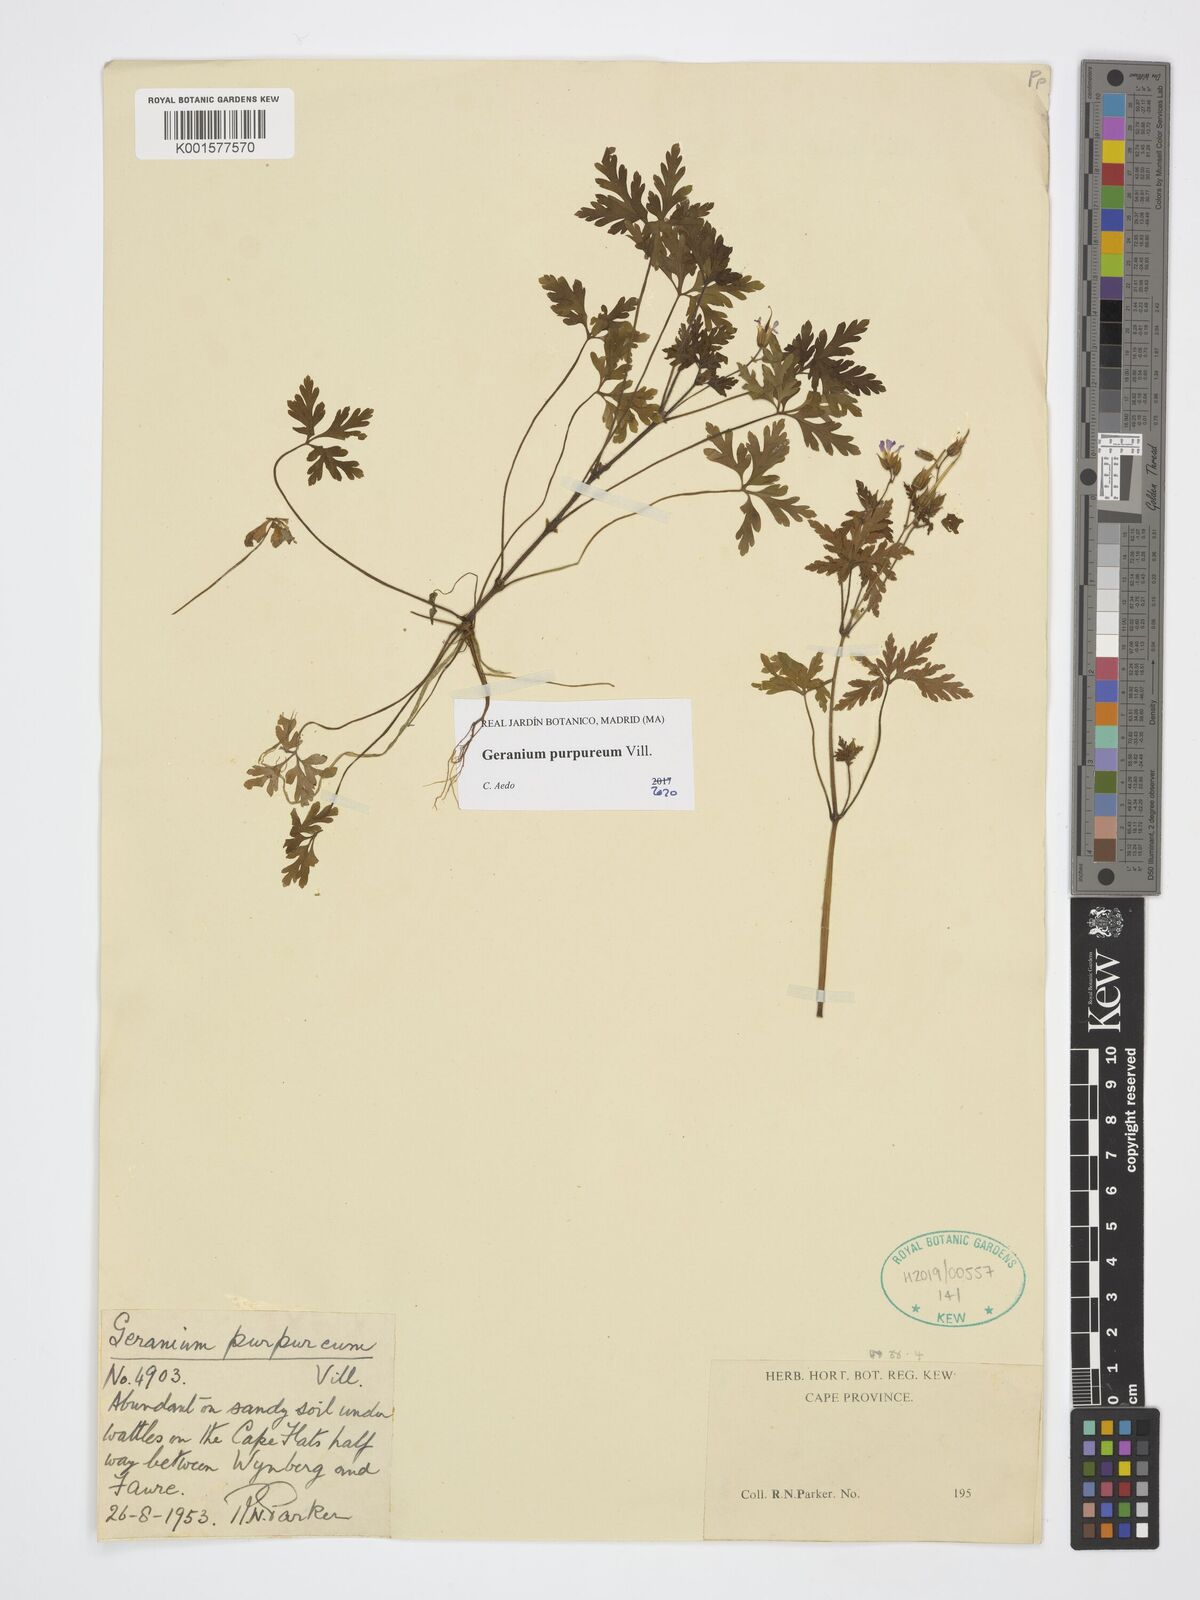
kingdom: Plantae
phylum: Tracheophyta
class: Magnoliopsida
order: Geraniales
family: Geraniaceae
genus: Geranium
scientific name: Geranium purpureum
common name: Little-robin
